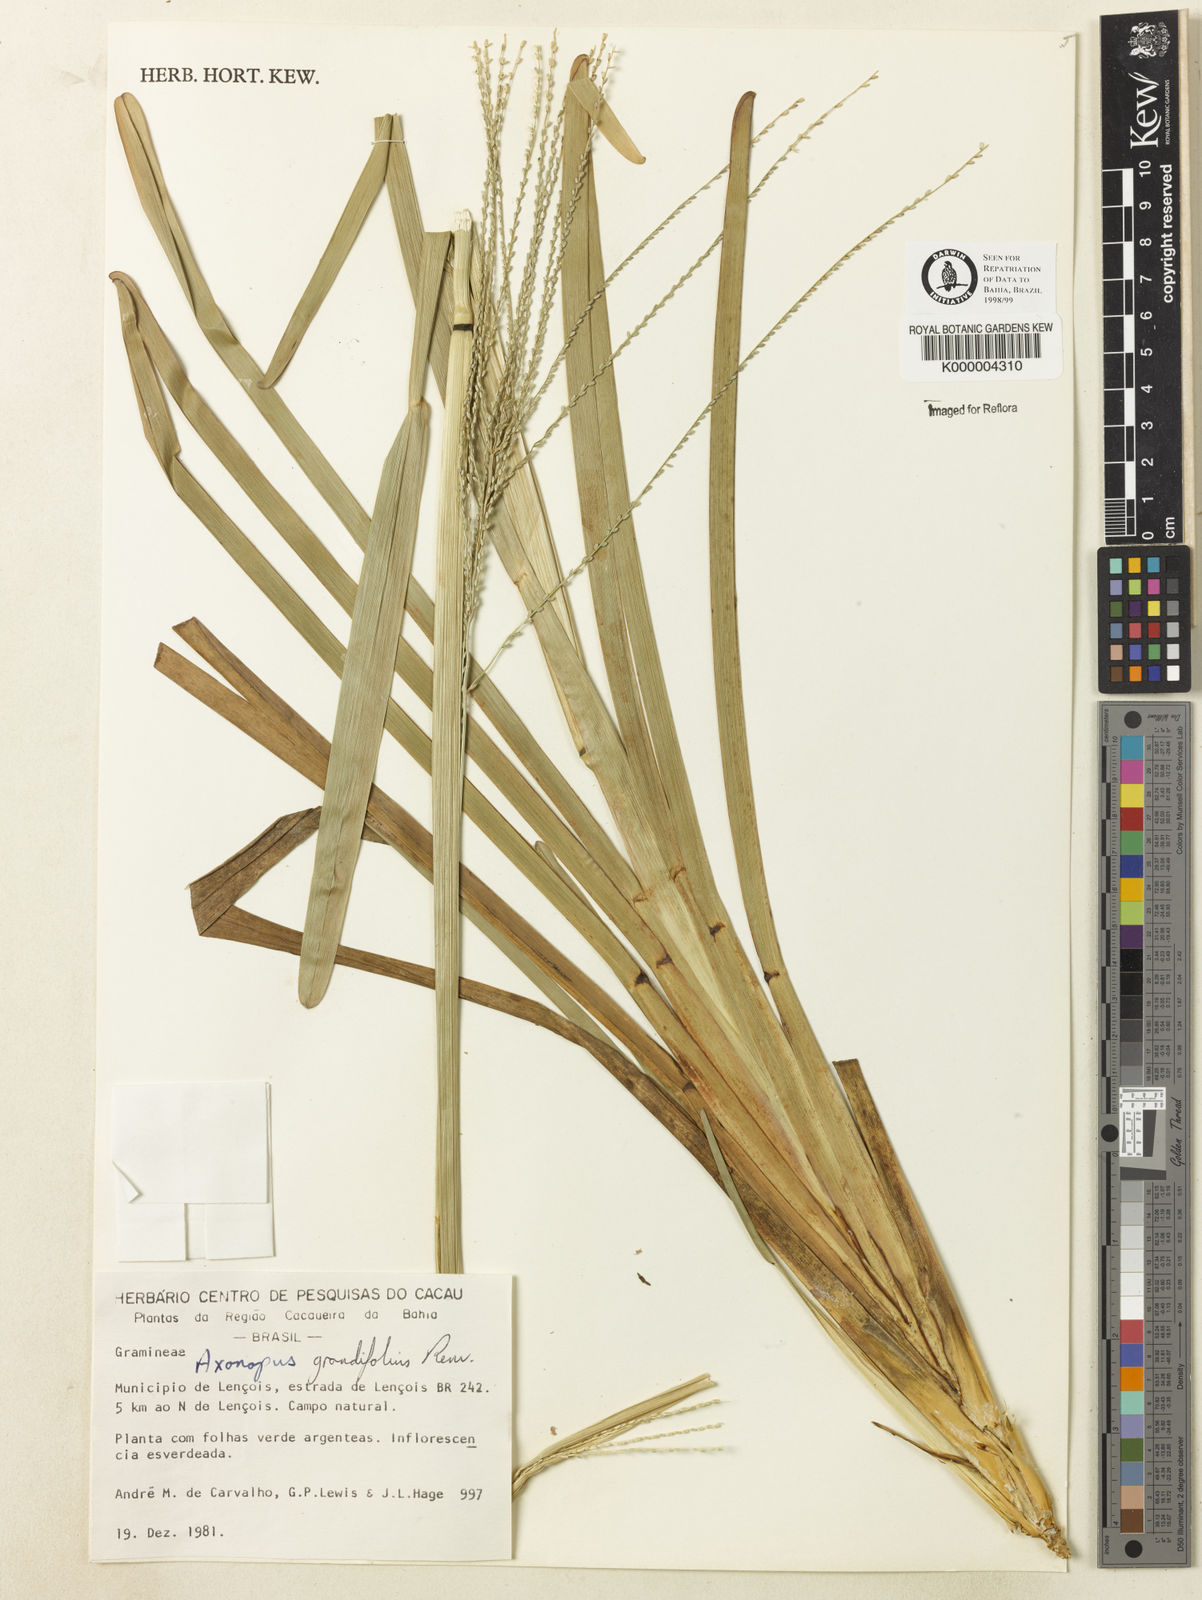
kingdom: Plantae
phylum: Tracheophyta
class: Liliopsida
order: Poales
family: Poaceae
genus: Axonopus
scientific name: Axonopus grandifolius
